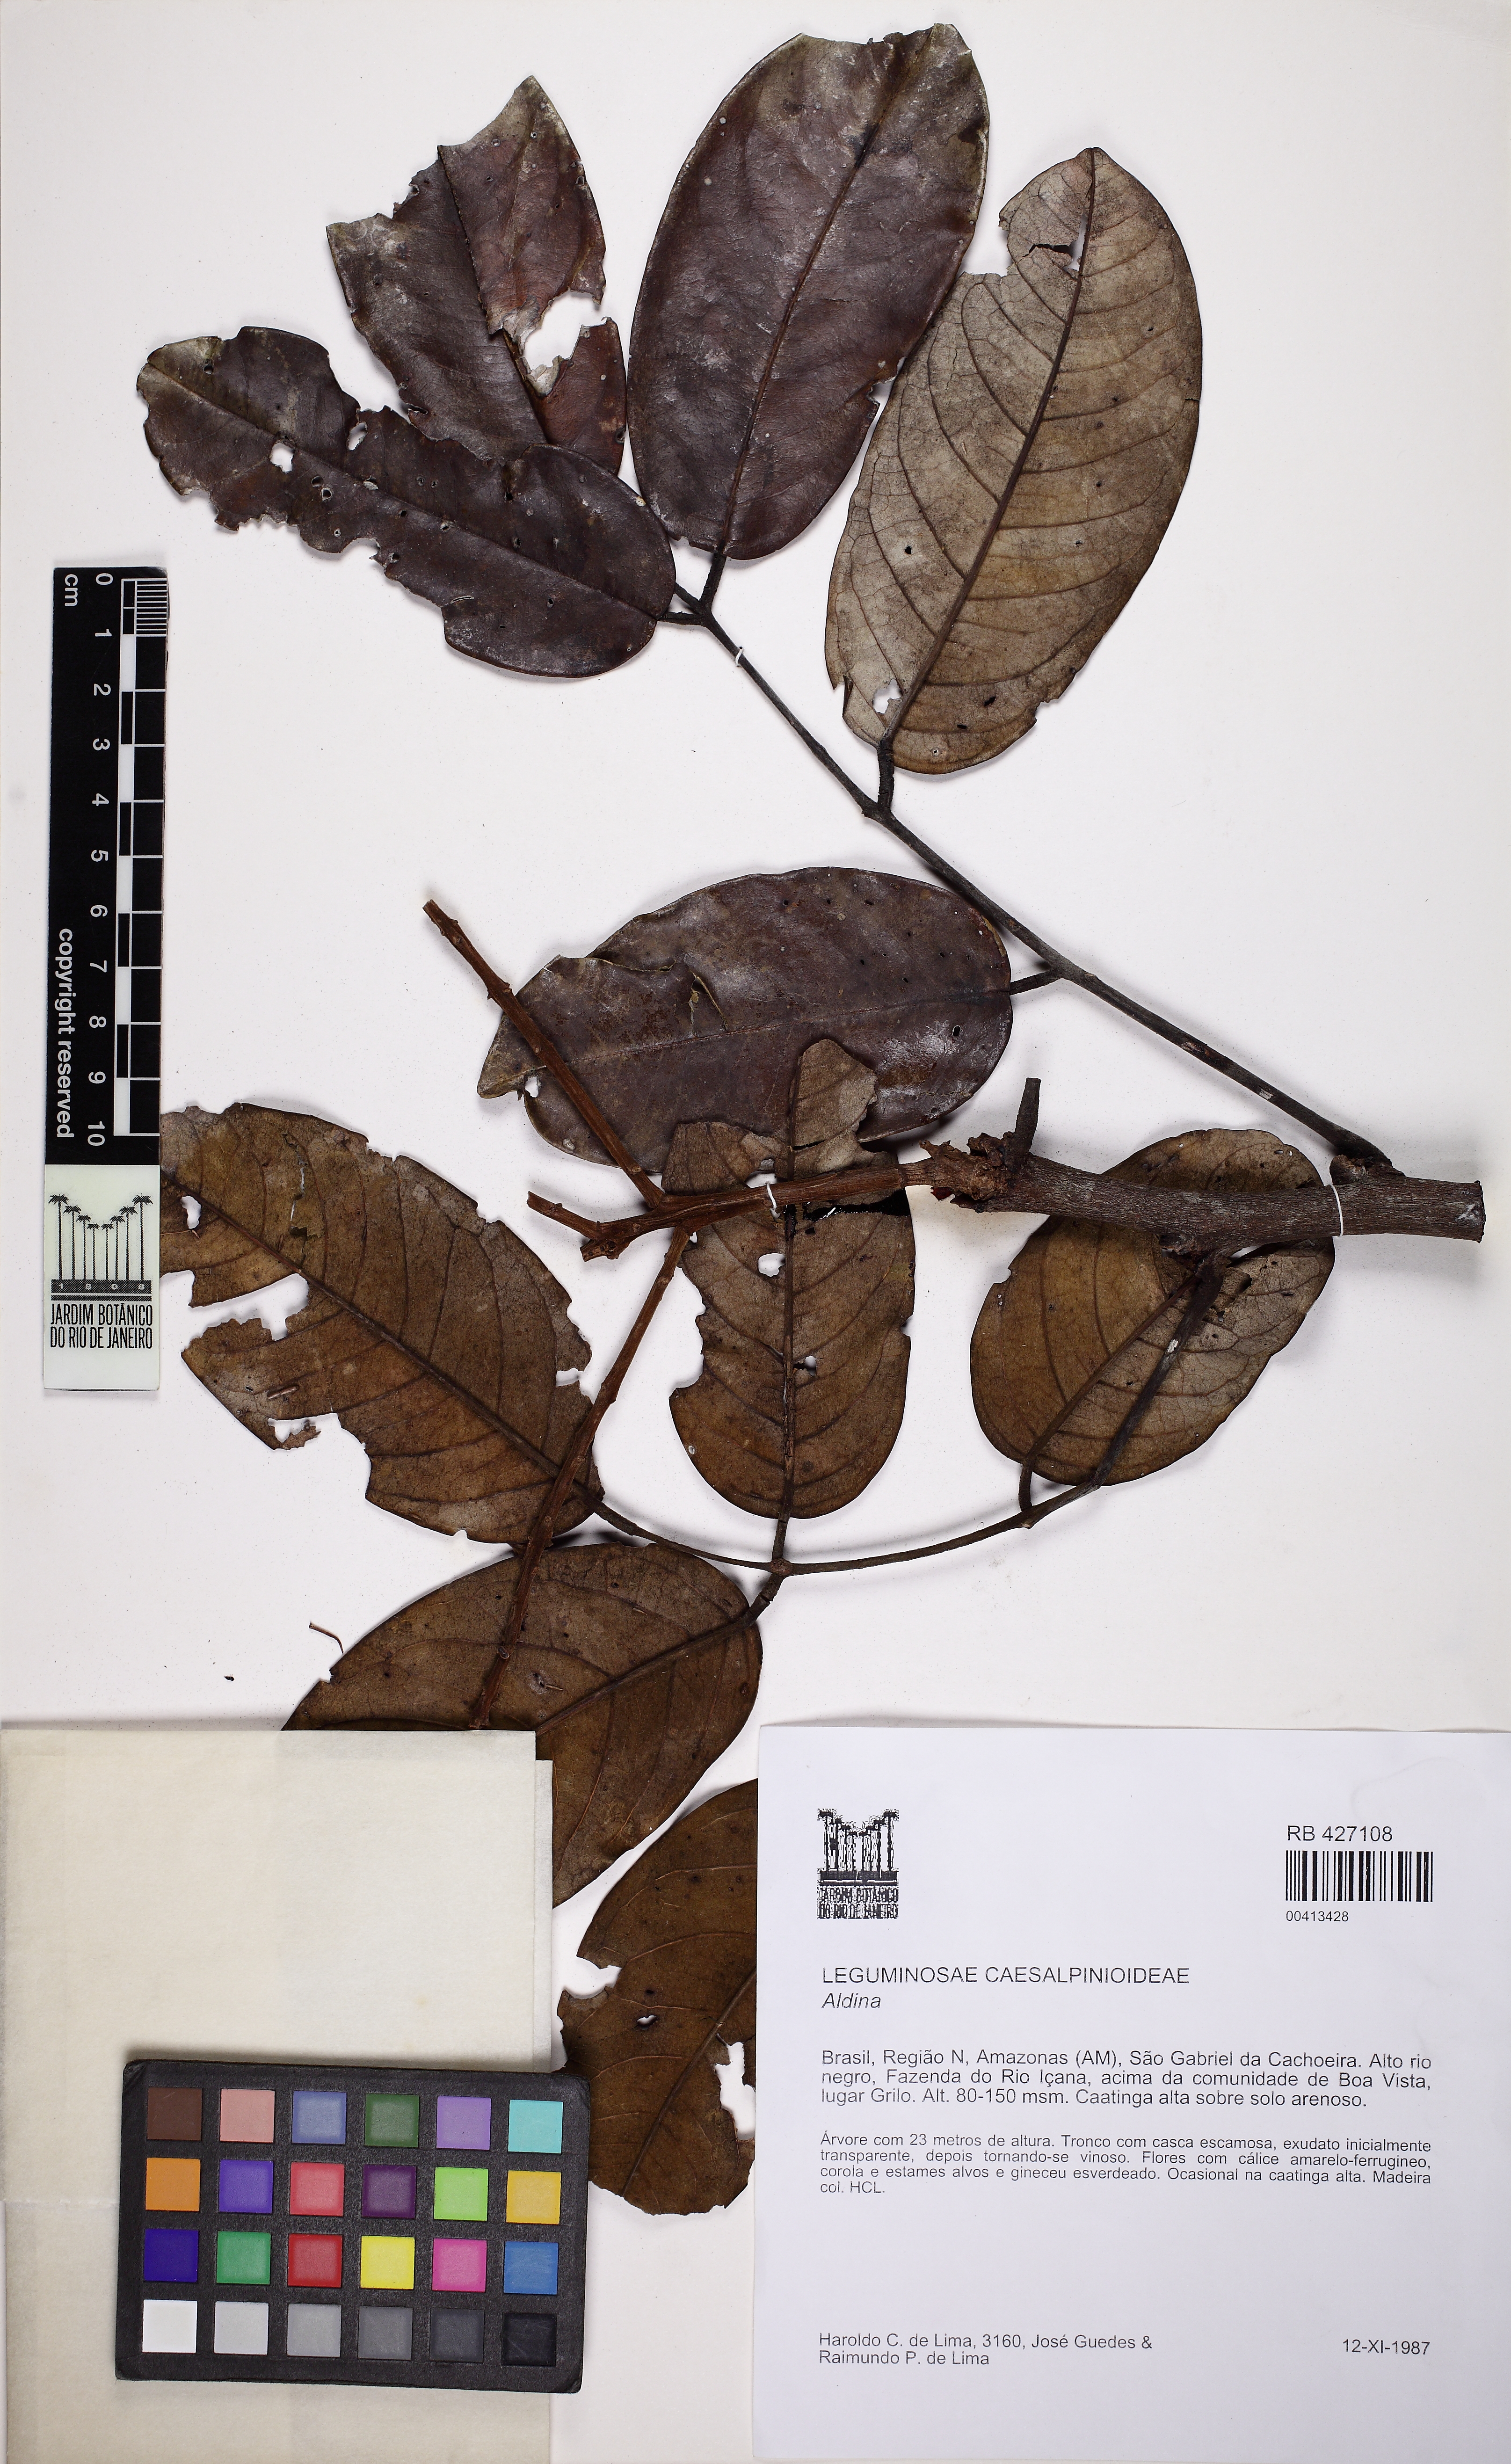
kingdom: Plantae
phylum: Tracheophyta
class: Magnoliopsida
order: Fabales
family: Fabaceae
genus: Aldina
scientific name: Aldina kunhardtiana
